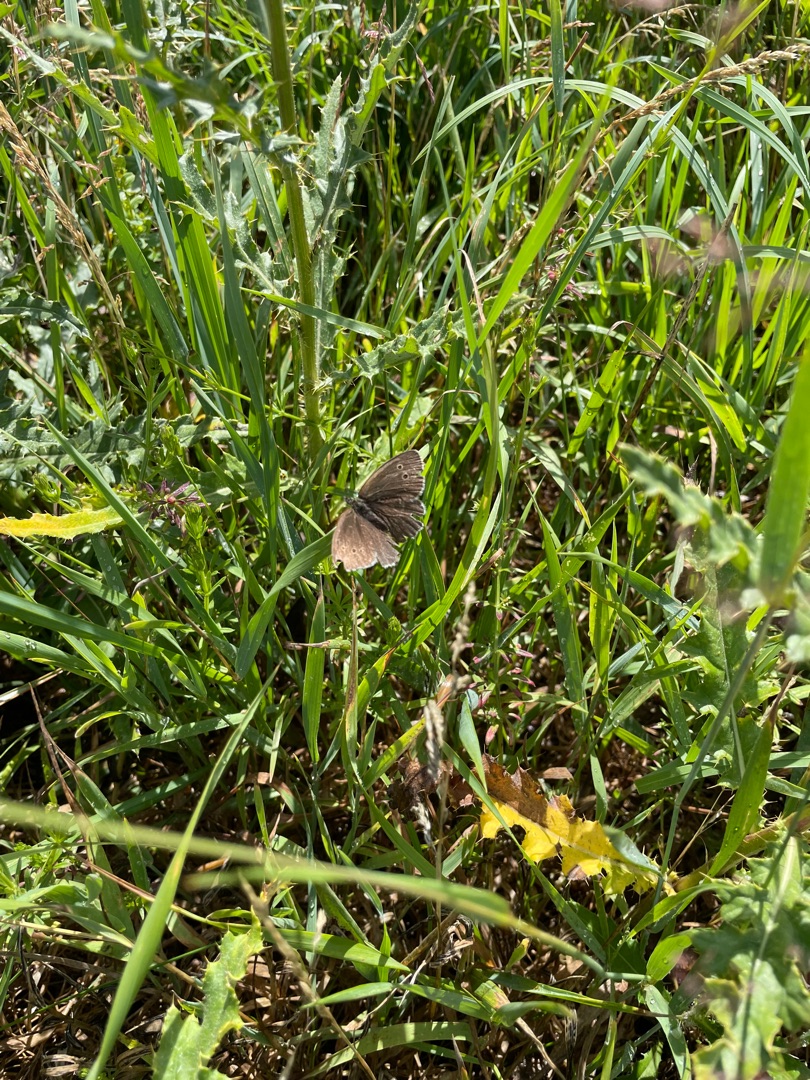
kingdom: Animalia
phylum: Arthropoda
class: Insecta
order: Lepidoptera
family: Nymphalidae
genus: Aphantopus
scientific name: Aphantopus hyperantus
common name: Engrandøje
